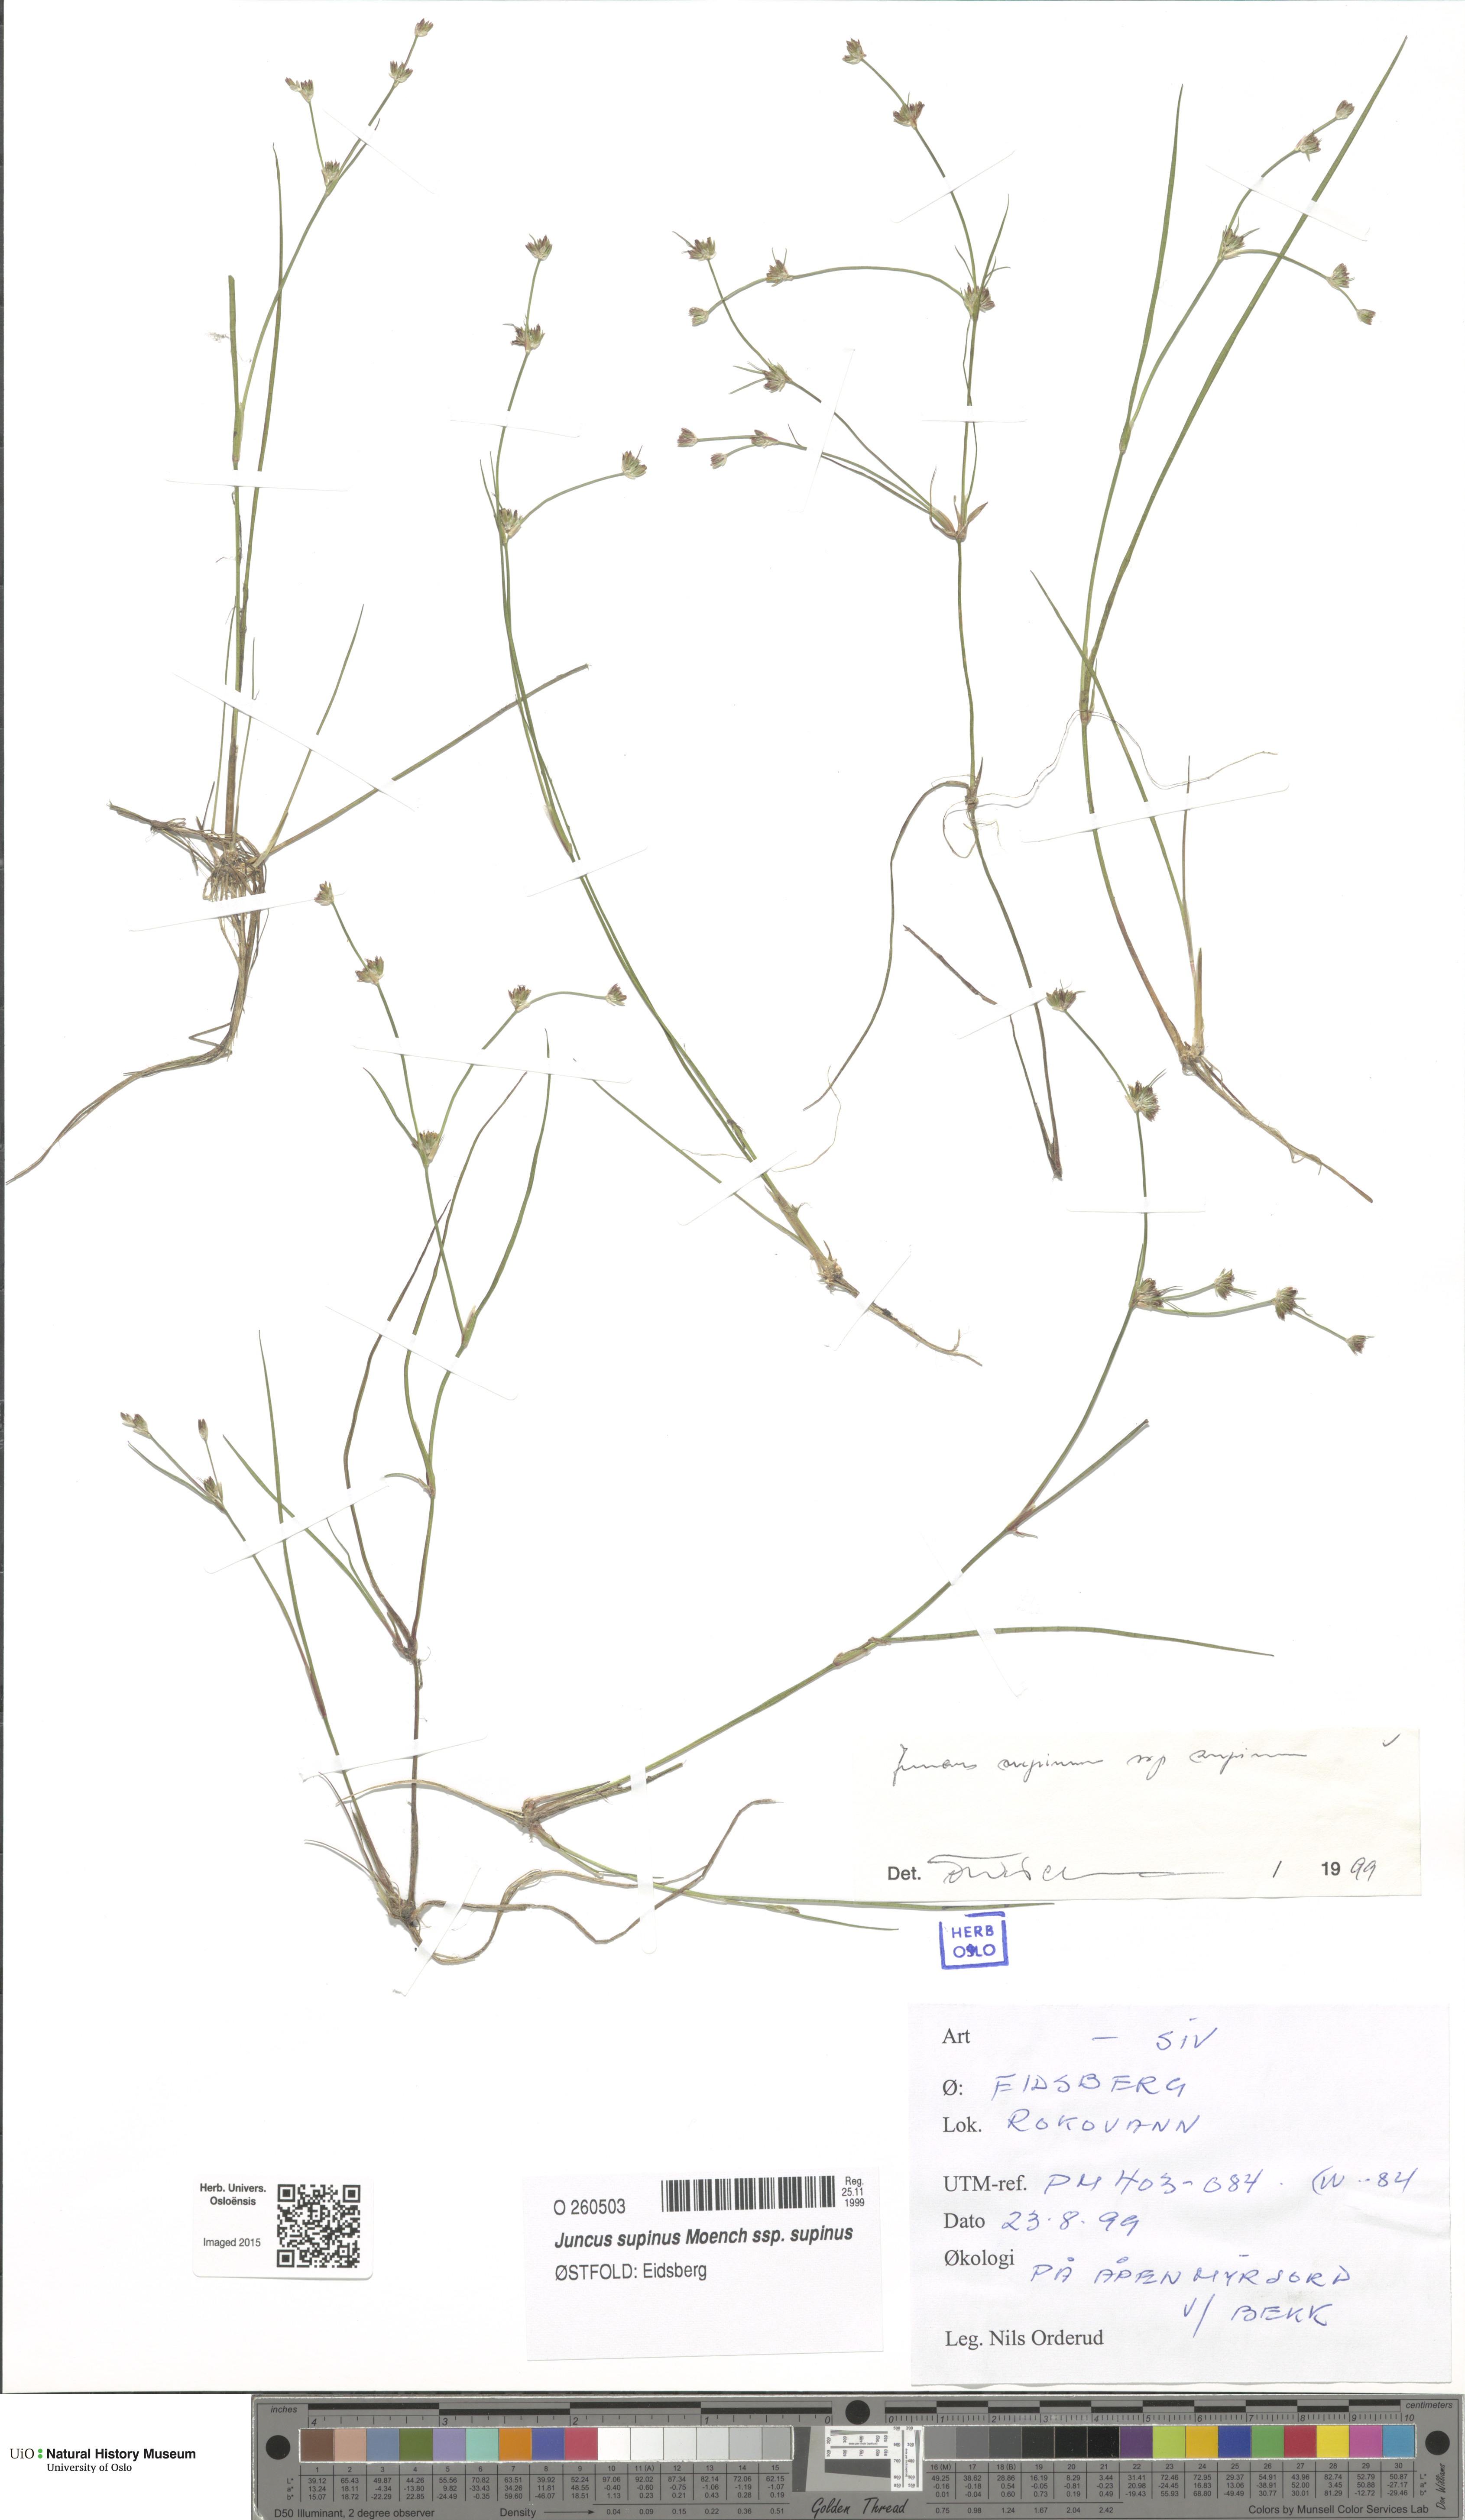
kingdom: Plantae
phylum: Tracheophyta
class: Liliopsida
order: Poales
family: Juncaceae
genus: Juncus
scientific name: Juncus bulbosus
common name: Bulbous rush
